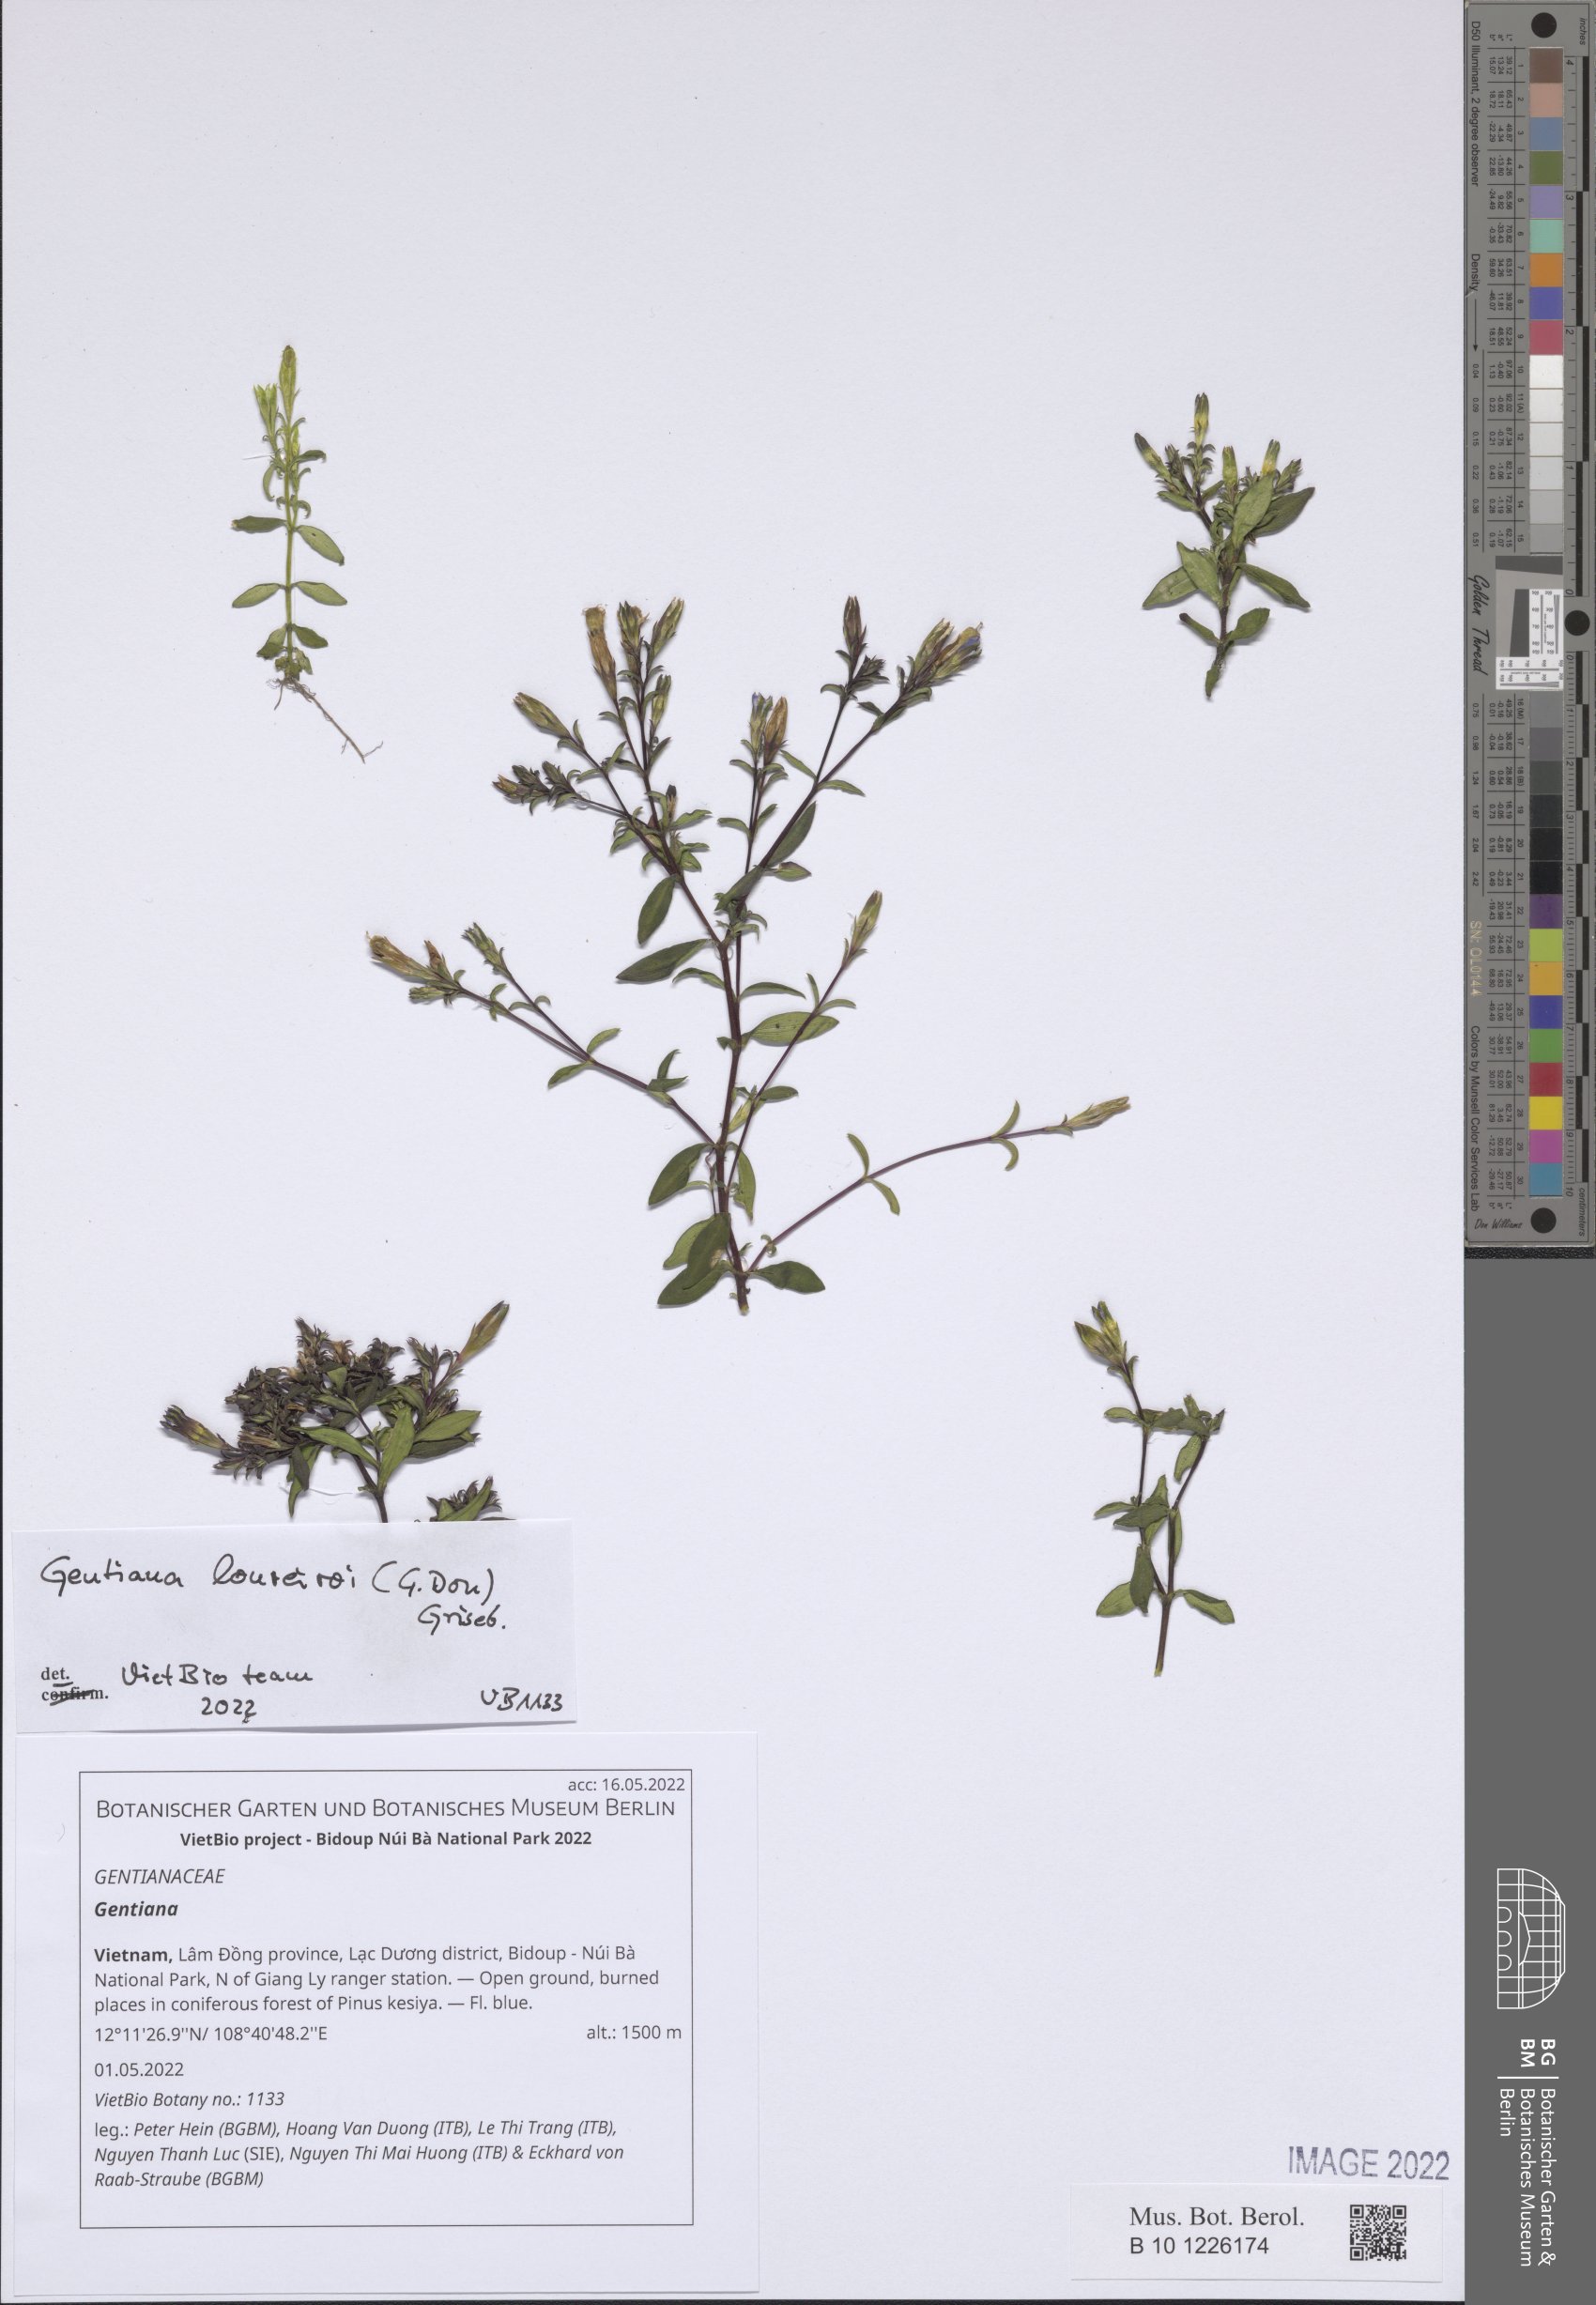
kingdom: Plantae
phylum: Tracheophyta
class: Magnoliopsida
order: Gentianales
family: Gentianaceae
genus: Gentiana
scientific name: Gentiana
